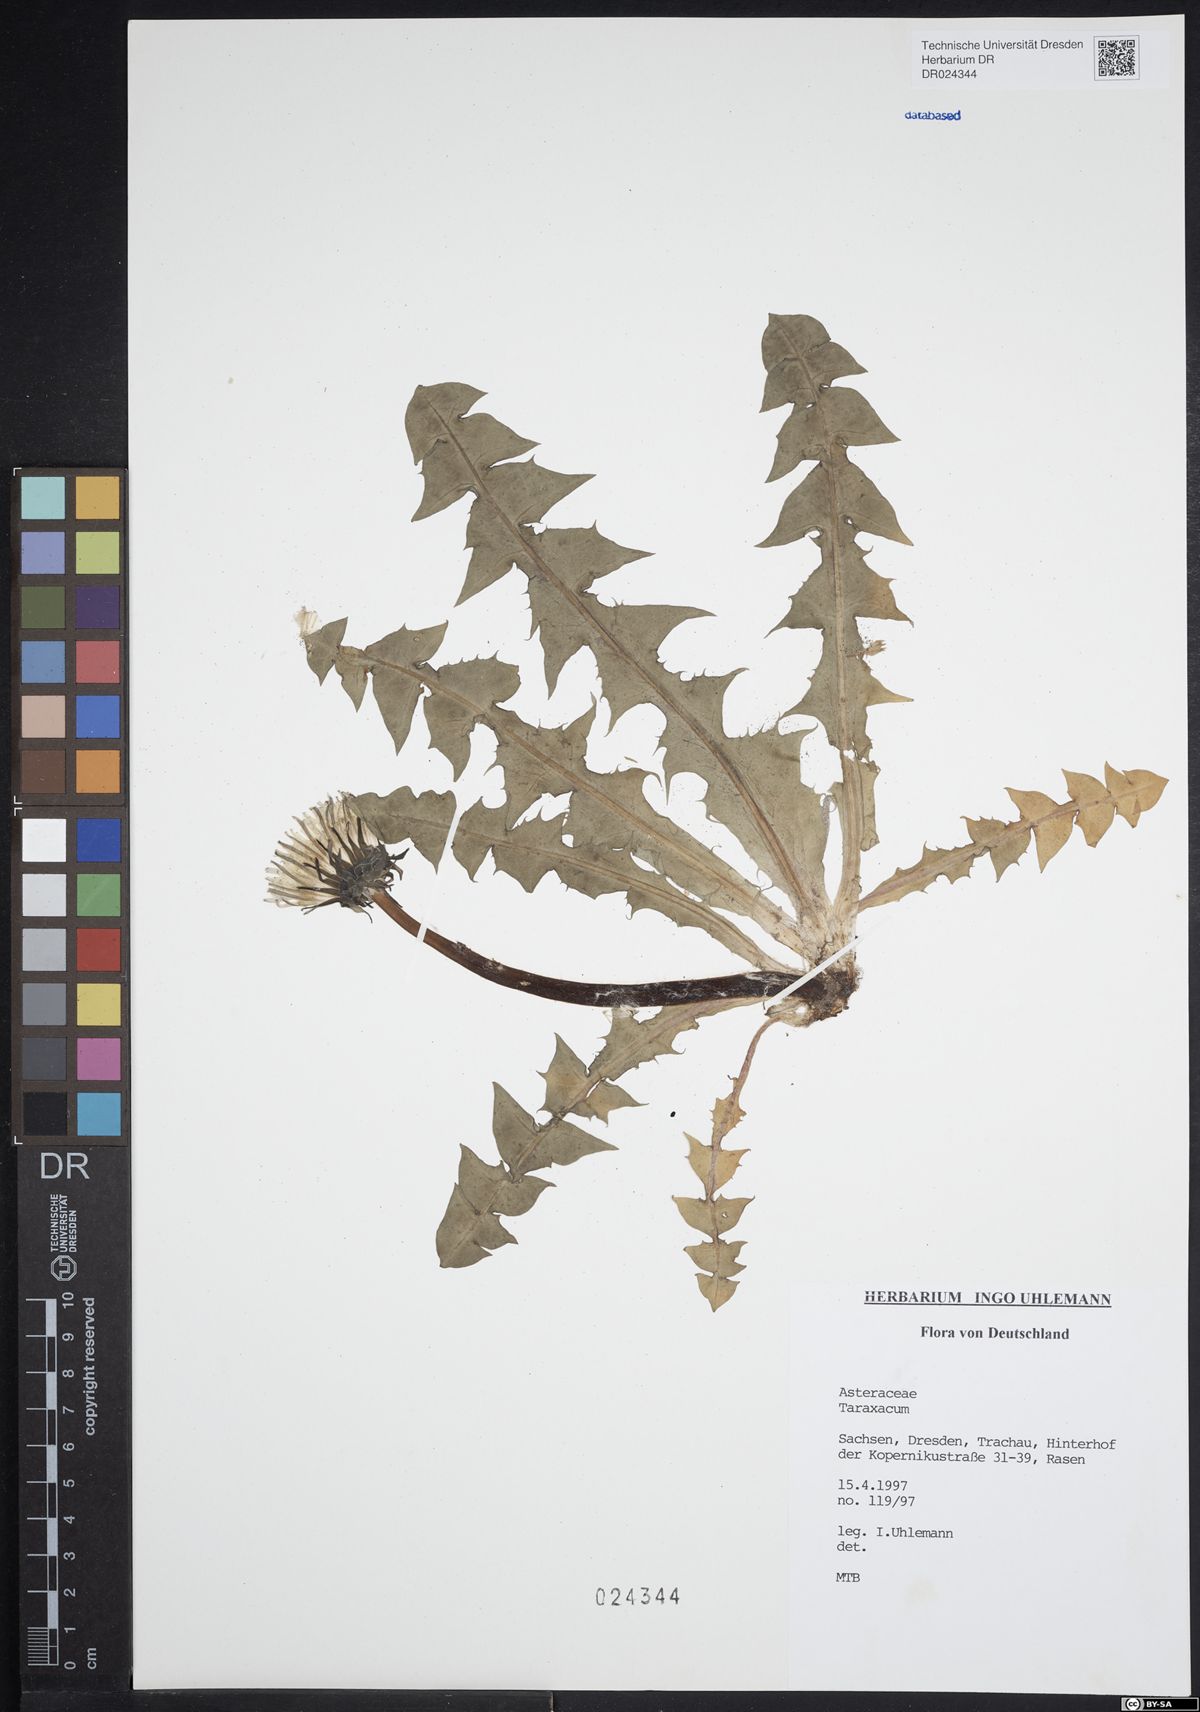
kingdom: Plantae
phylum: Tracheophyta
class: Magnoliopsida
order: Asterales
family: Asteraceae
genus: Taraxacum
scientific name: Taraxacum acrolobum
